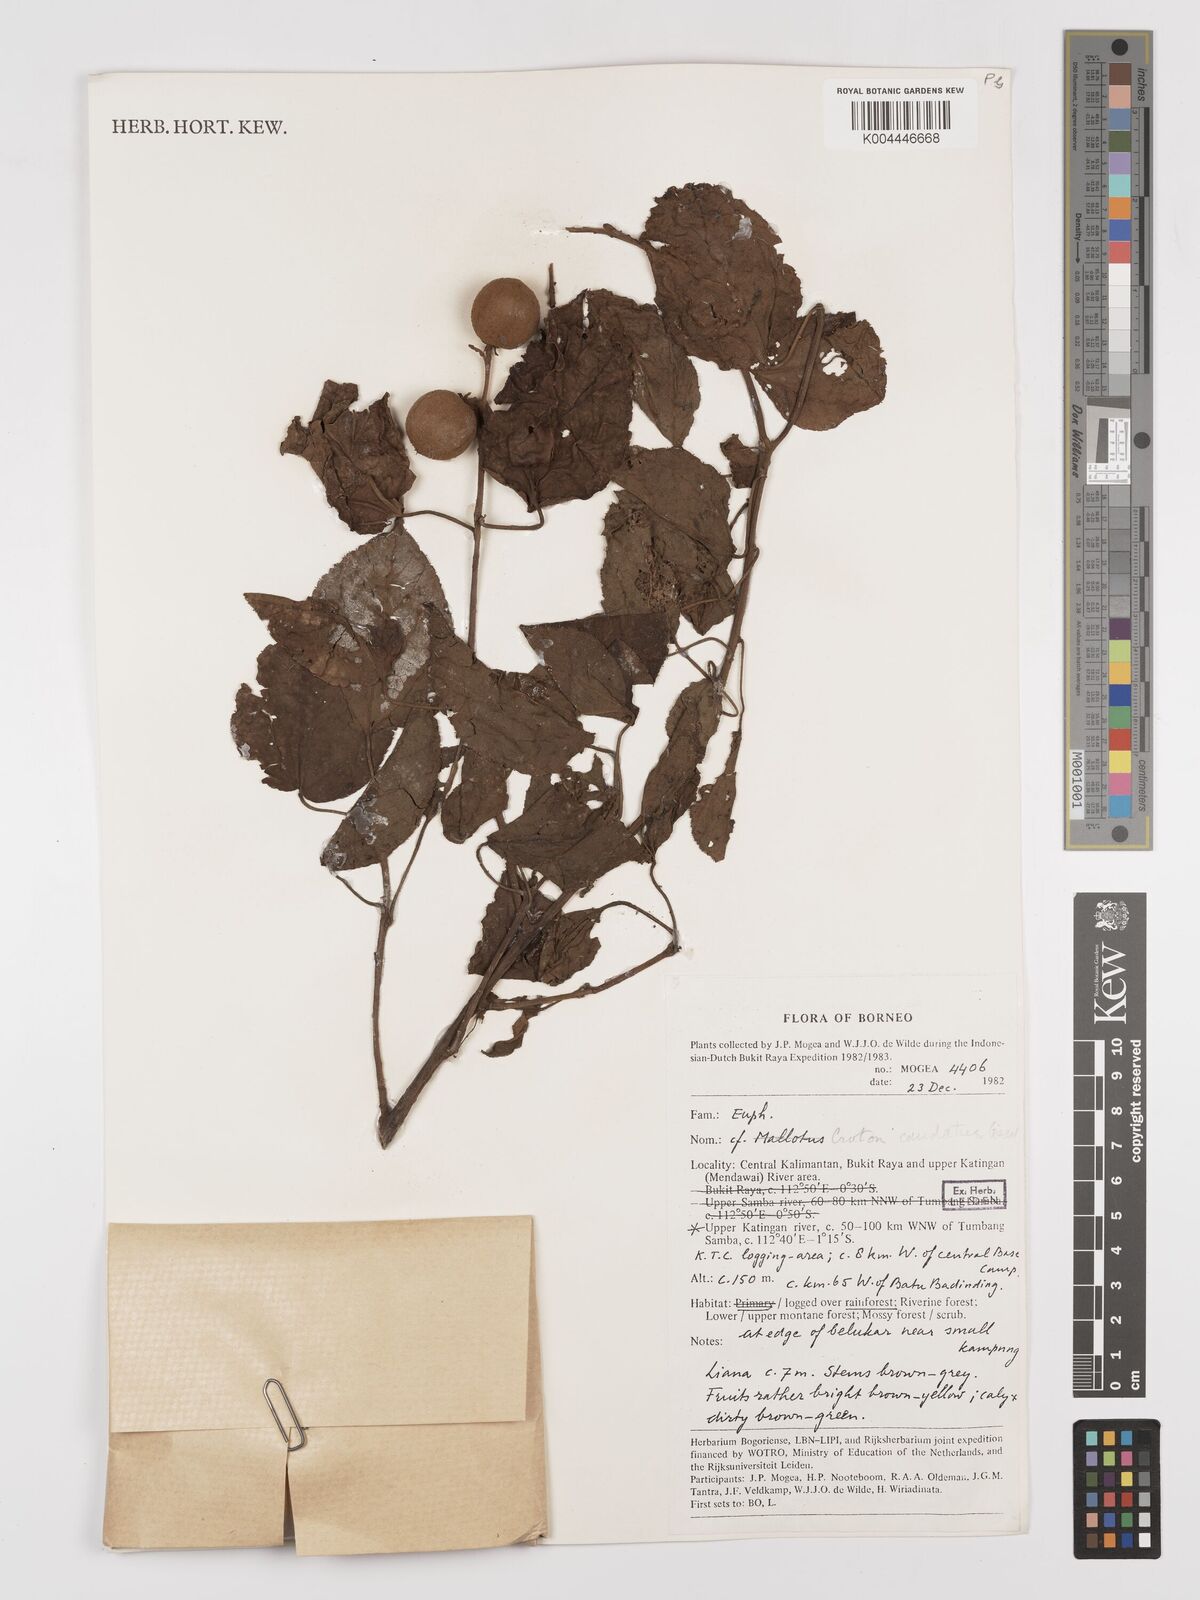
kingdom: Plantae
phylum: Tracheophyta
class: Magnoliopsida
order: Malpighiales
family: Euphorbiaceae
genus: Croton
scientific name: Croton caudatus
